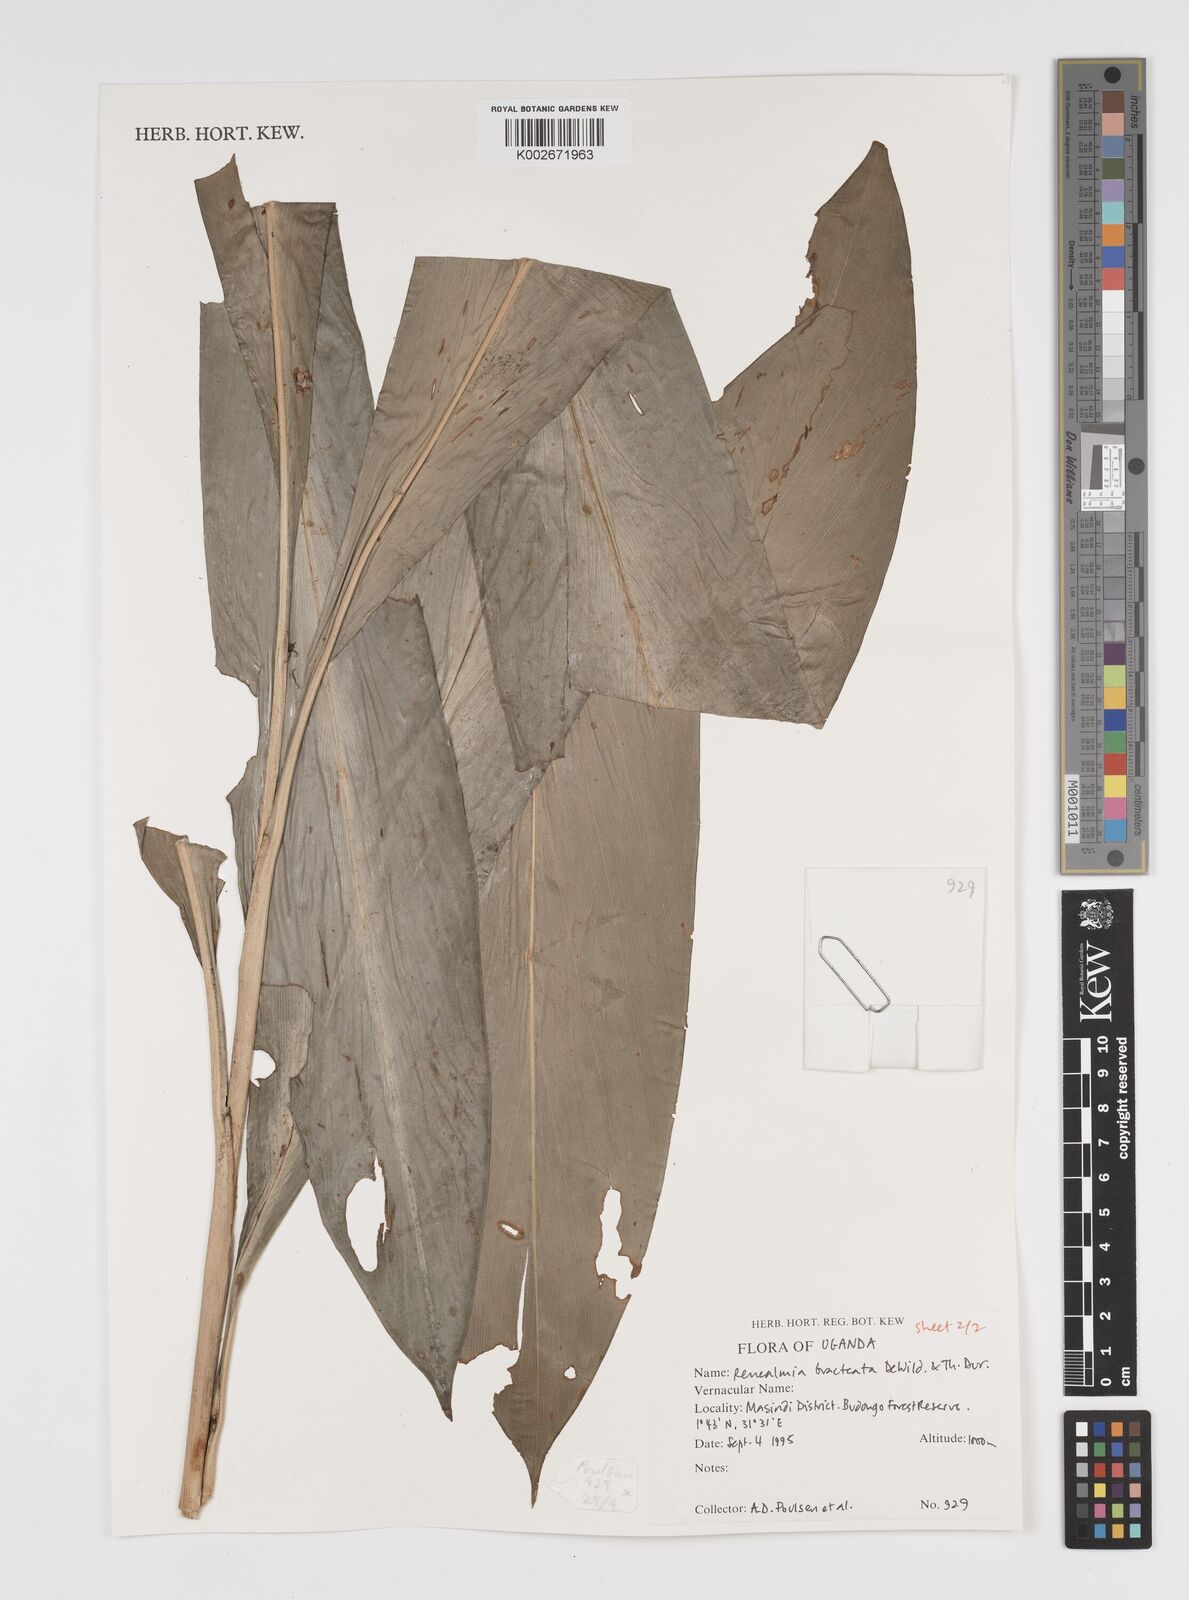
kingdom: Plantae
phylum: Tracheophyta
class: Liliopsida
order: Zingiberales
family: Zingiberaceae
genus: Renealmia
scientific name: Renealmia bracteata
